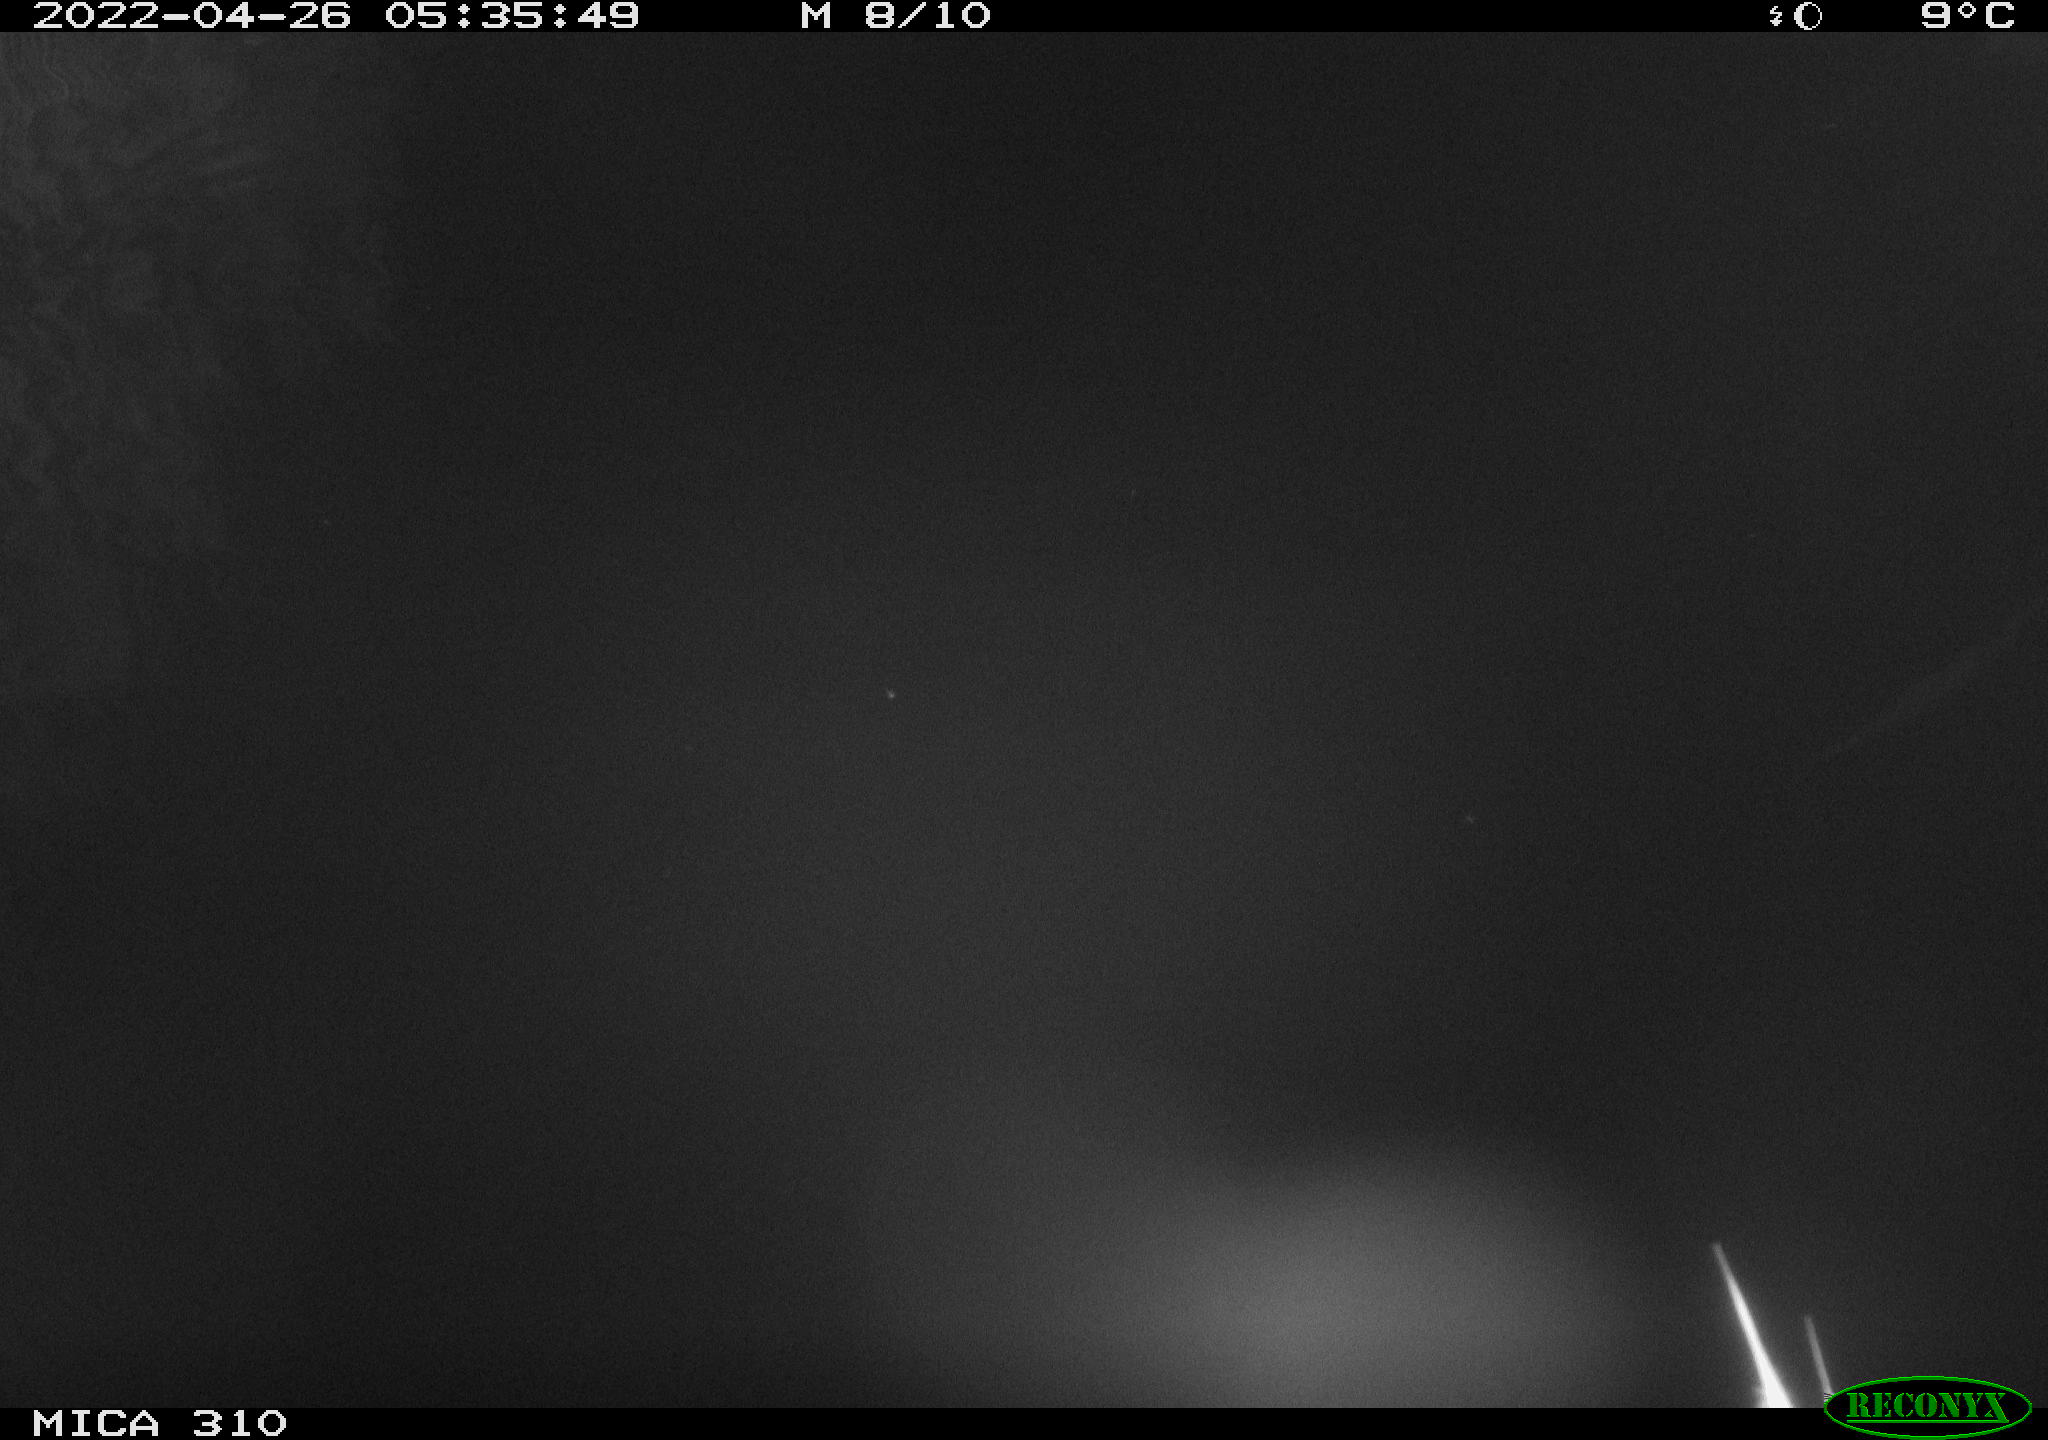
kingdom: Animalia
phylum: Chordata
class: Aves
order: Pelecaniformes
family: Ardeidae
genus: Ardea
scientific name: Ardea
